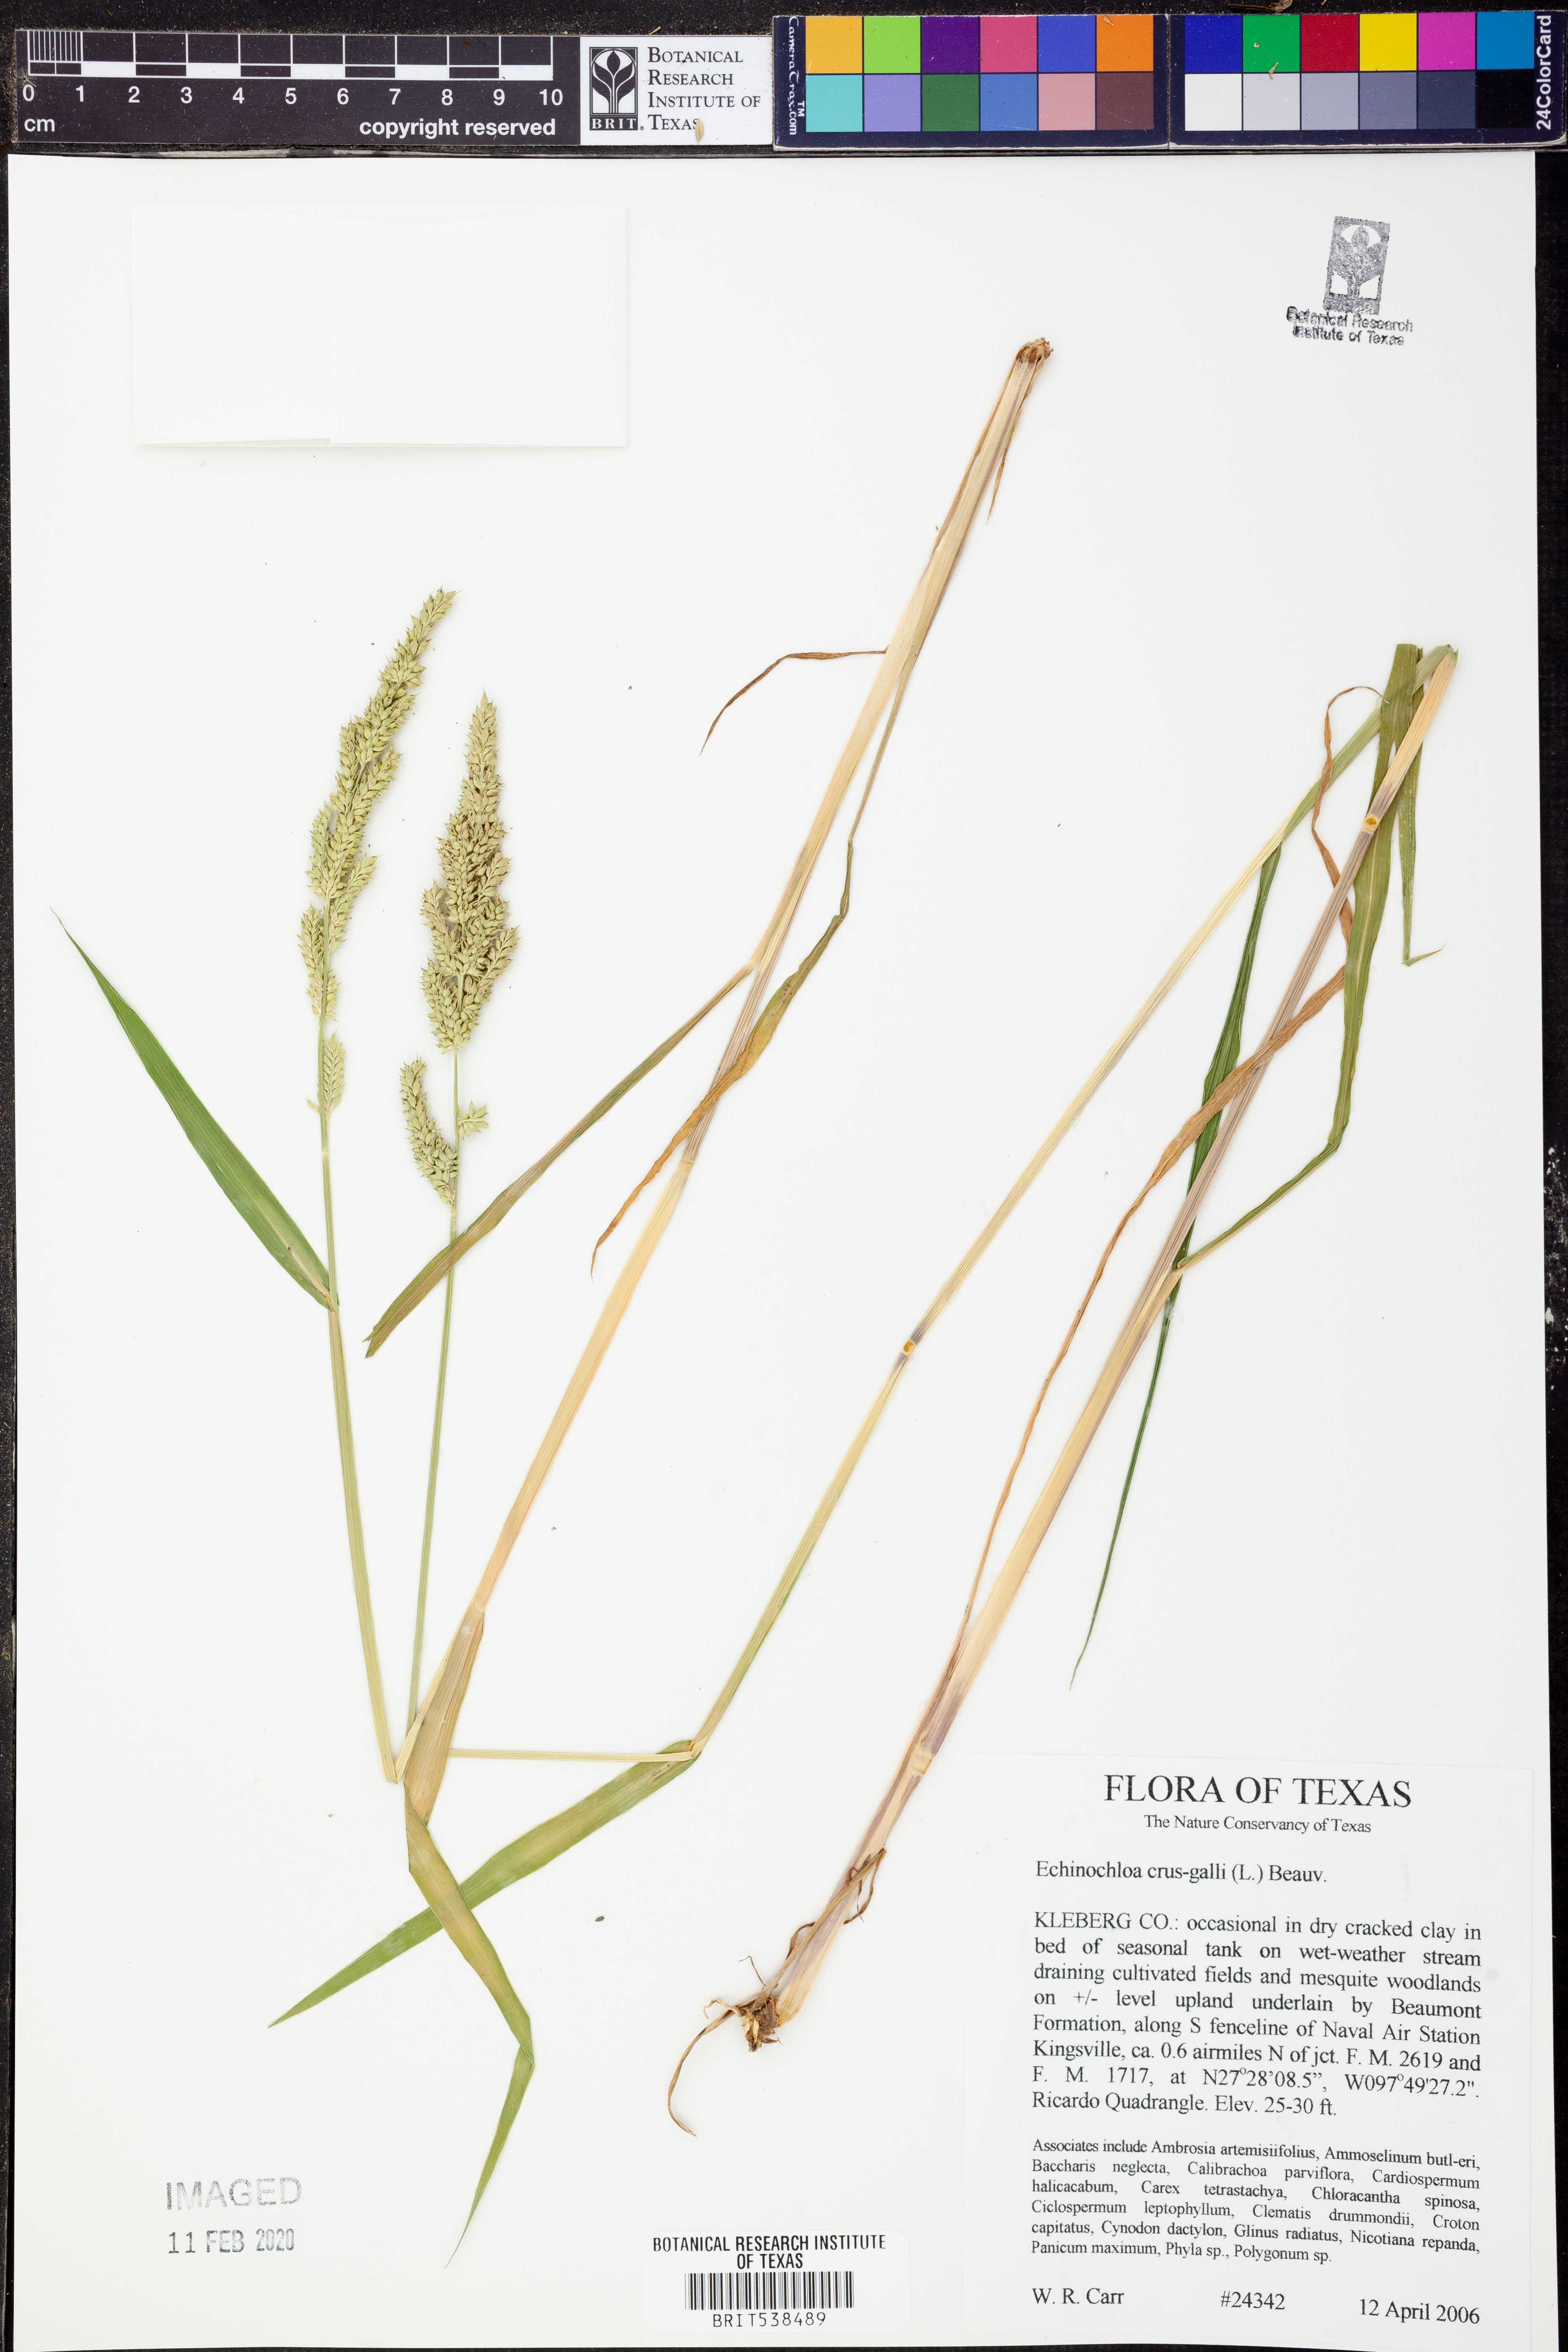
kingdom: Plantae
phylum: Tracheophyta
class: Liliopsida
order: Poales
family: Poaceae
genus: Echinochloa
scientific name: Echinochloa crus-galli
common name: Cockspur
